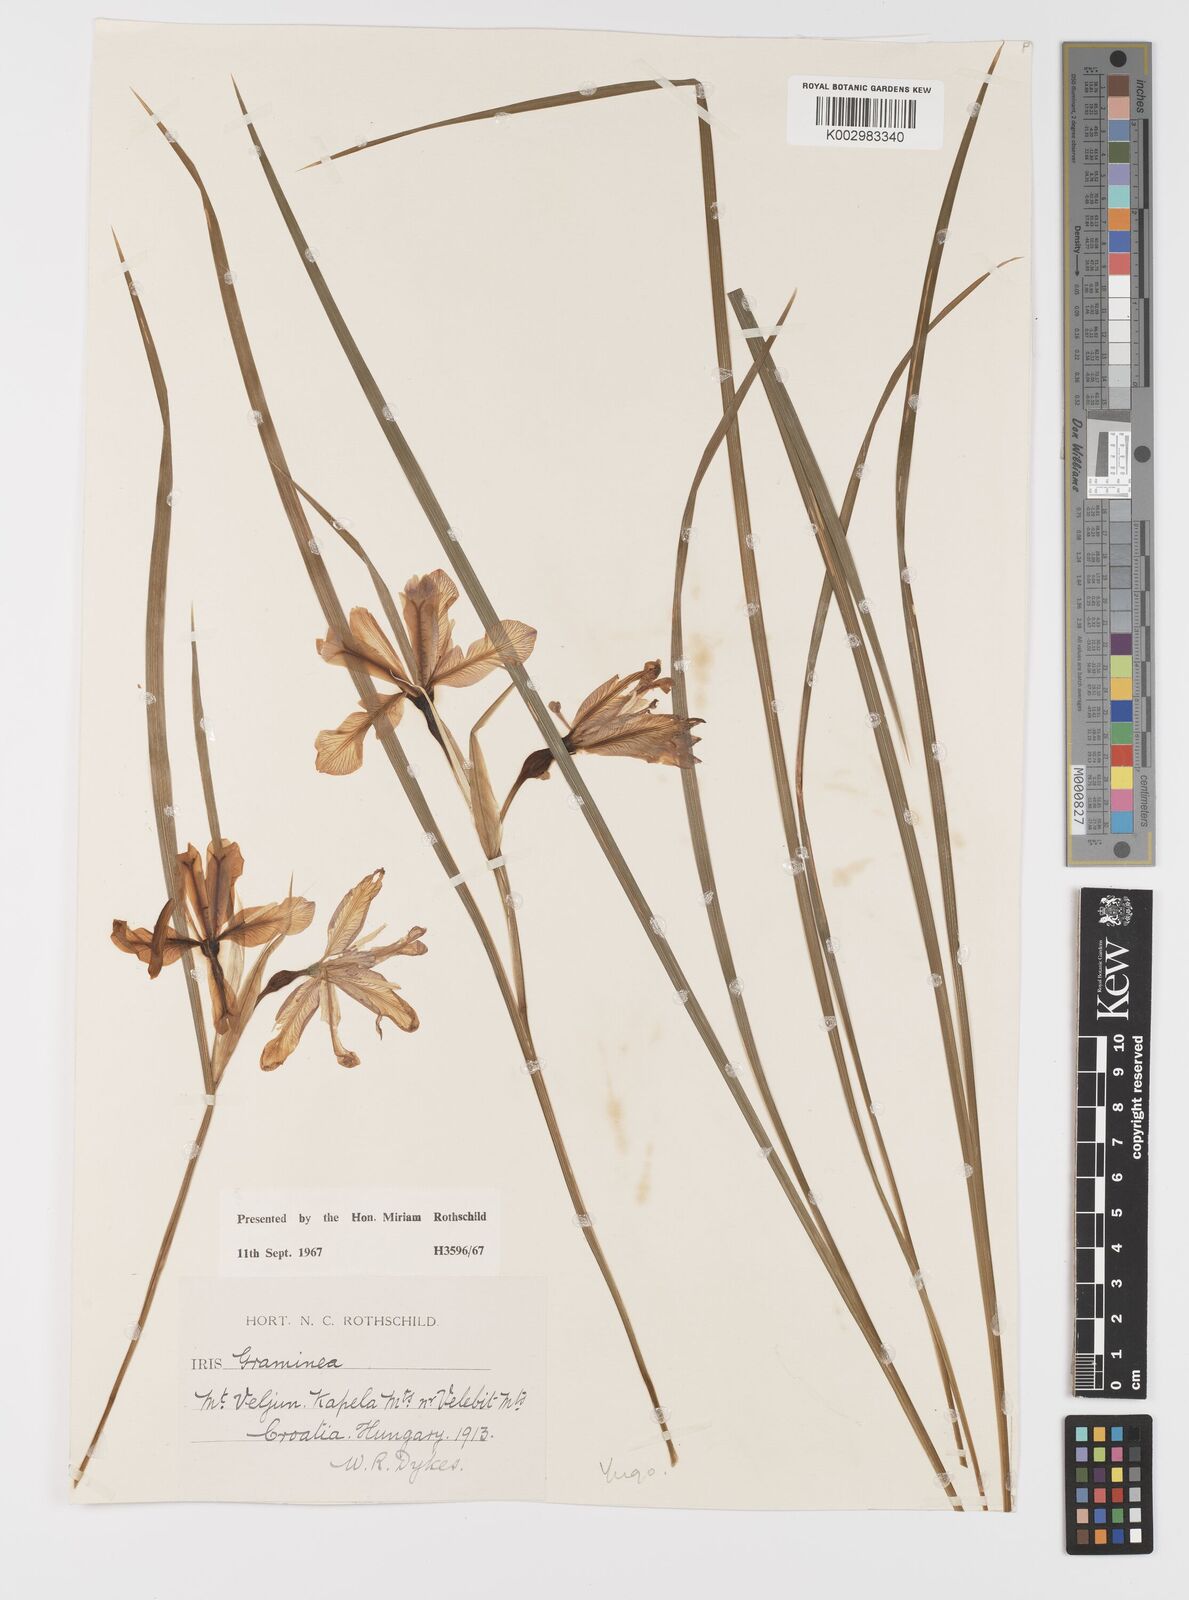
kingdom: Plantae
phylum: Tracheophyta
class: Liliopsida
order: Asparagales
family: Iridaceae
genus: Iris
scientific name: Iris graminea
